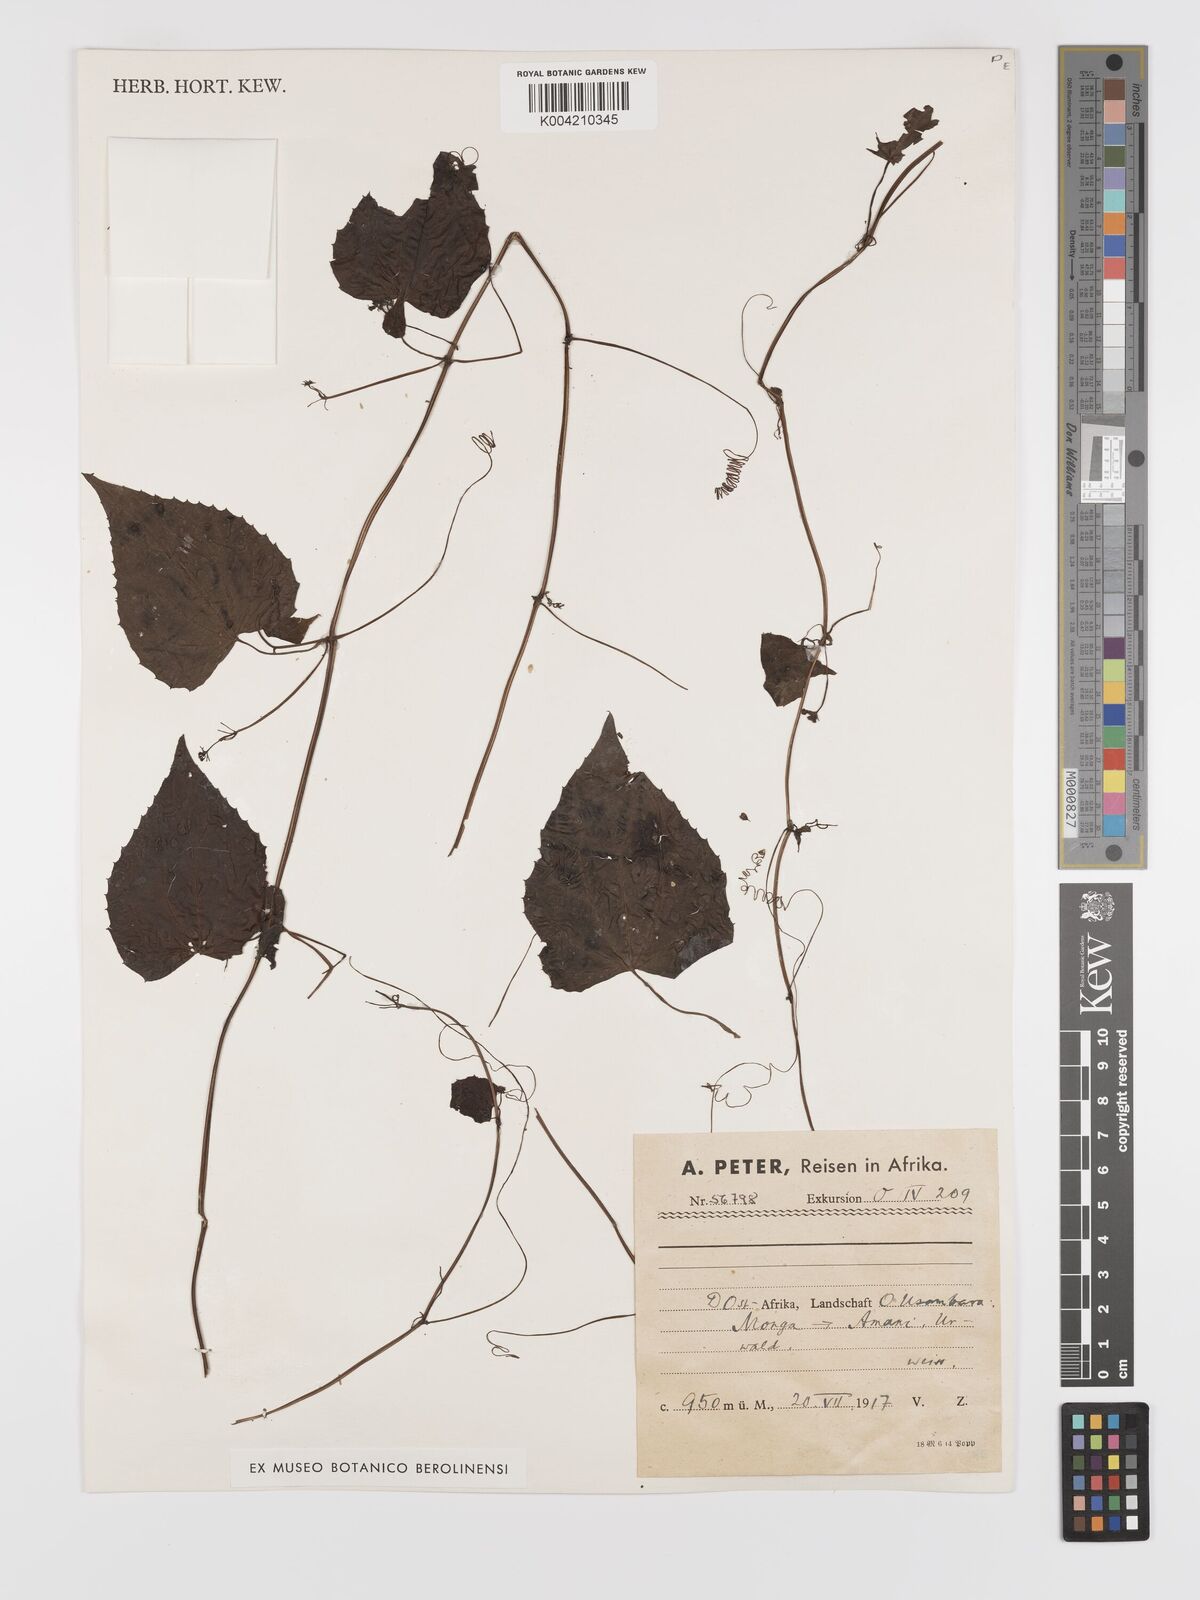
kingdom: Plantae
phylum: Tracheophyta
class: Magnoliopsida
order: Cucurbitales
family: Cucurbitaceae
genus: Zehneria
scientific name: Zehneria emirnensis
